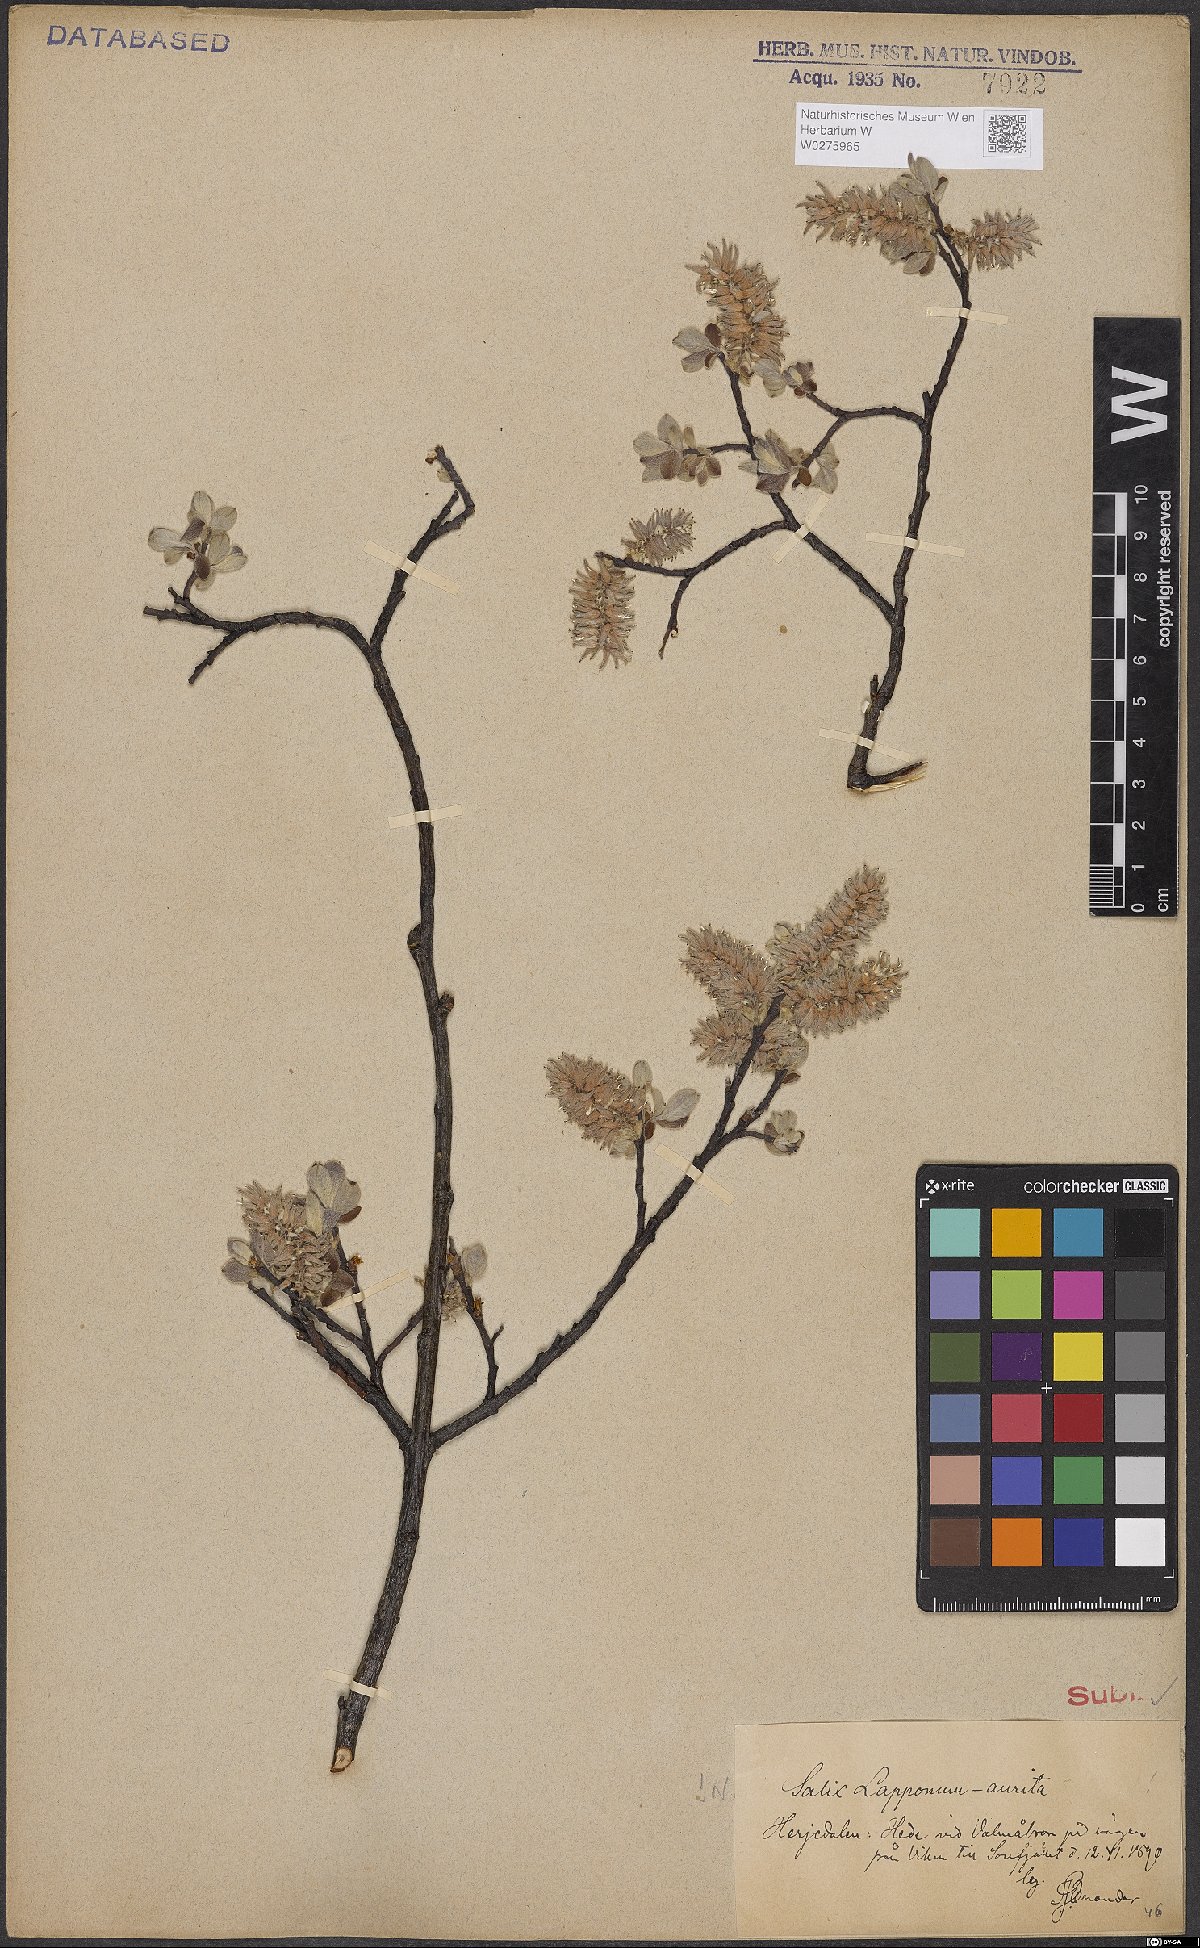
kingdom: Plantae
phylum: Tracheophyta
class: Magnoliopsida
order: Malpighiales
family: Salicaceae
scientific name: Salicaceae
